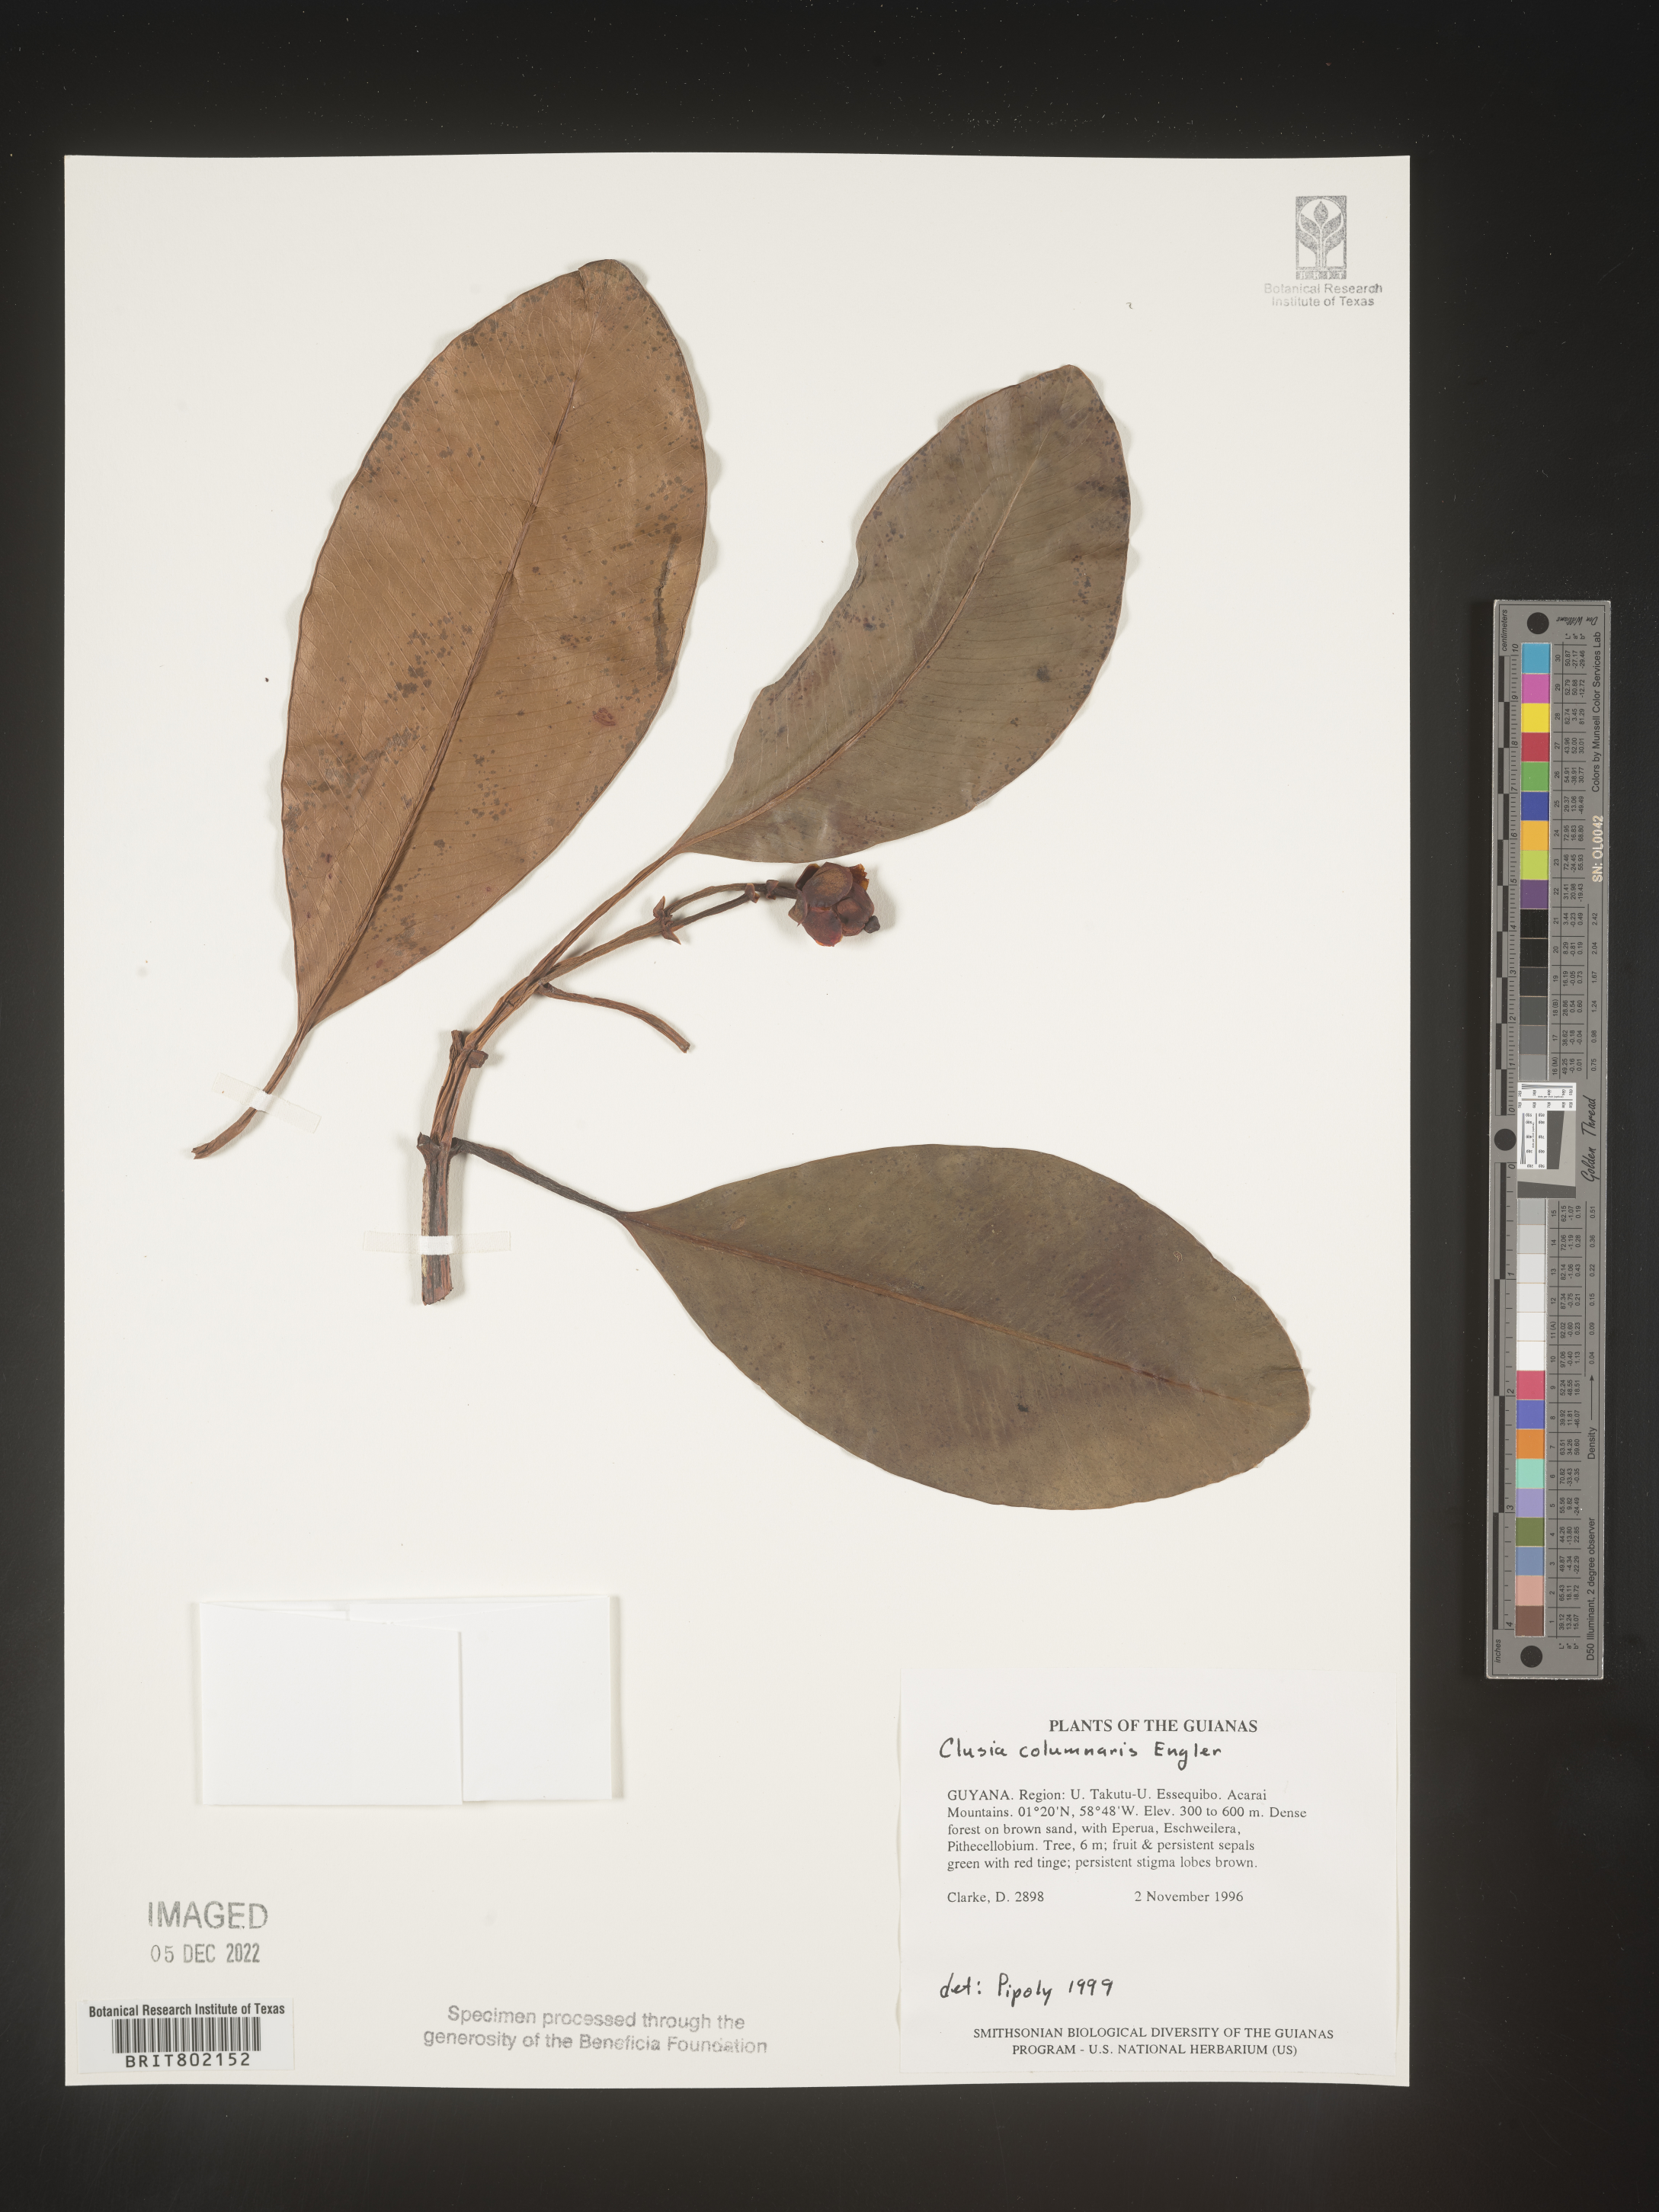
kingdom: Plantae
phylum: Tracheophyta
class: Magnoliopsida
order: Malpighiales
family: Clusiaceae
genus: Clusia
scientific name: Clusia columnaris
